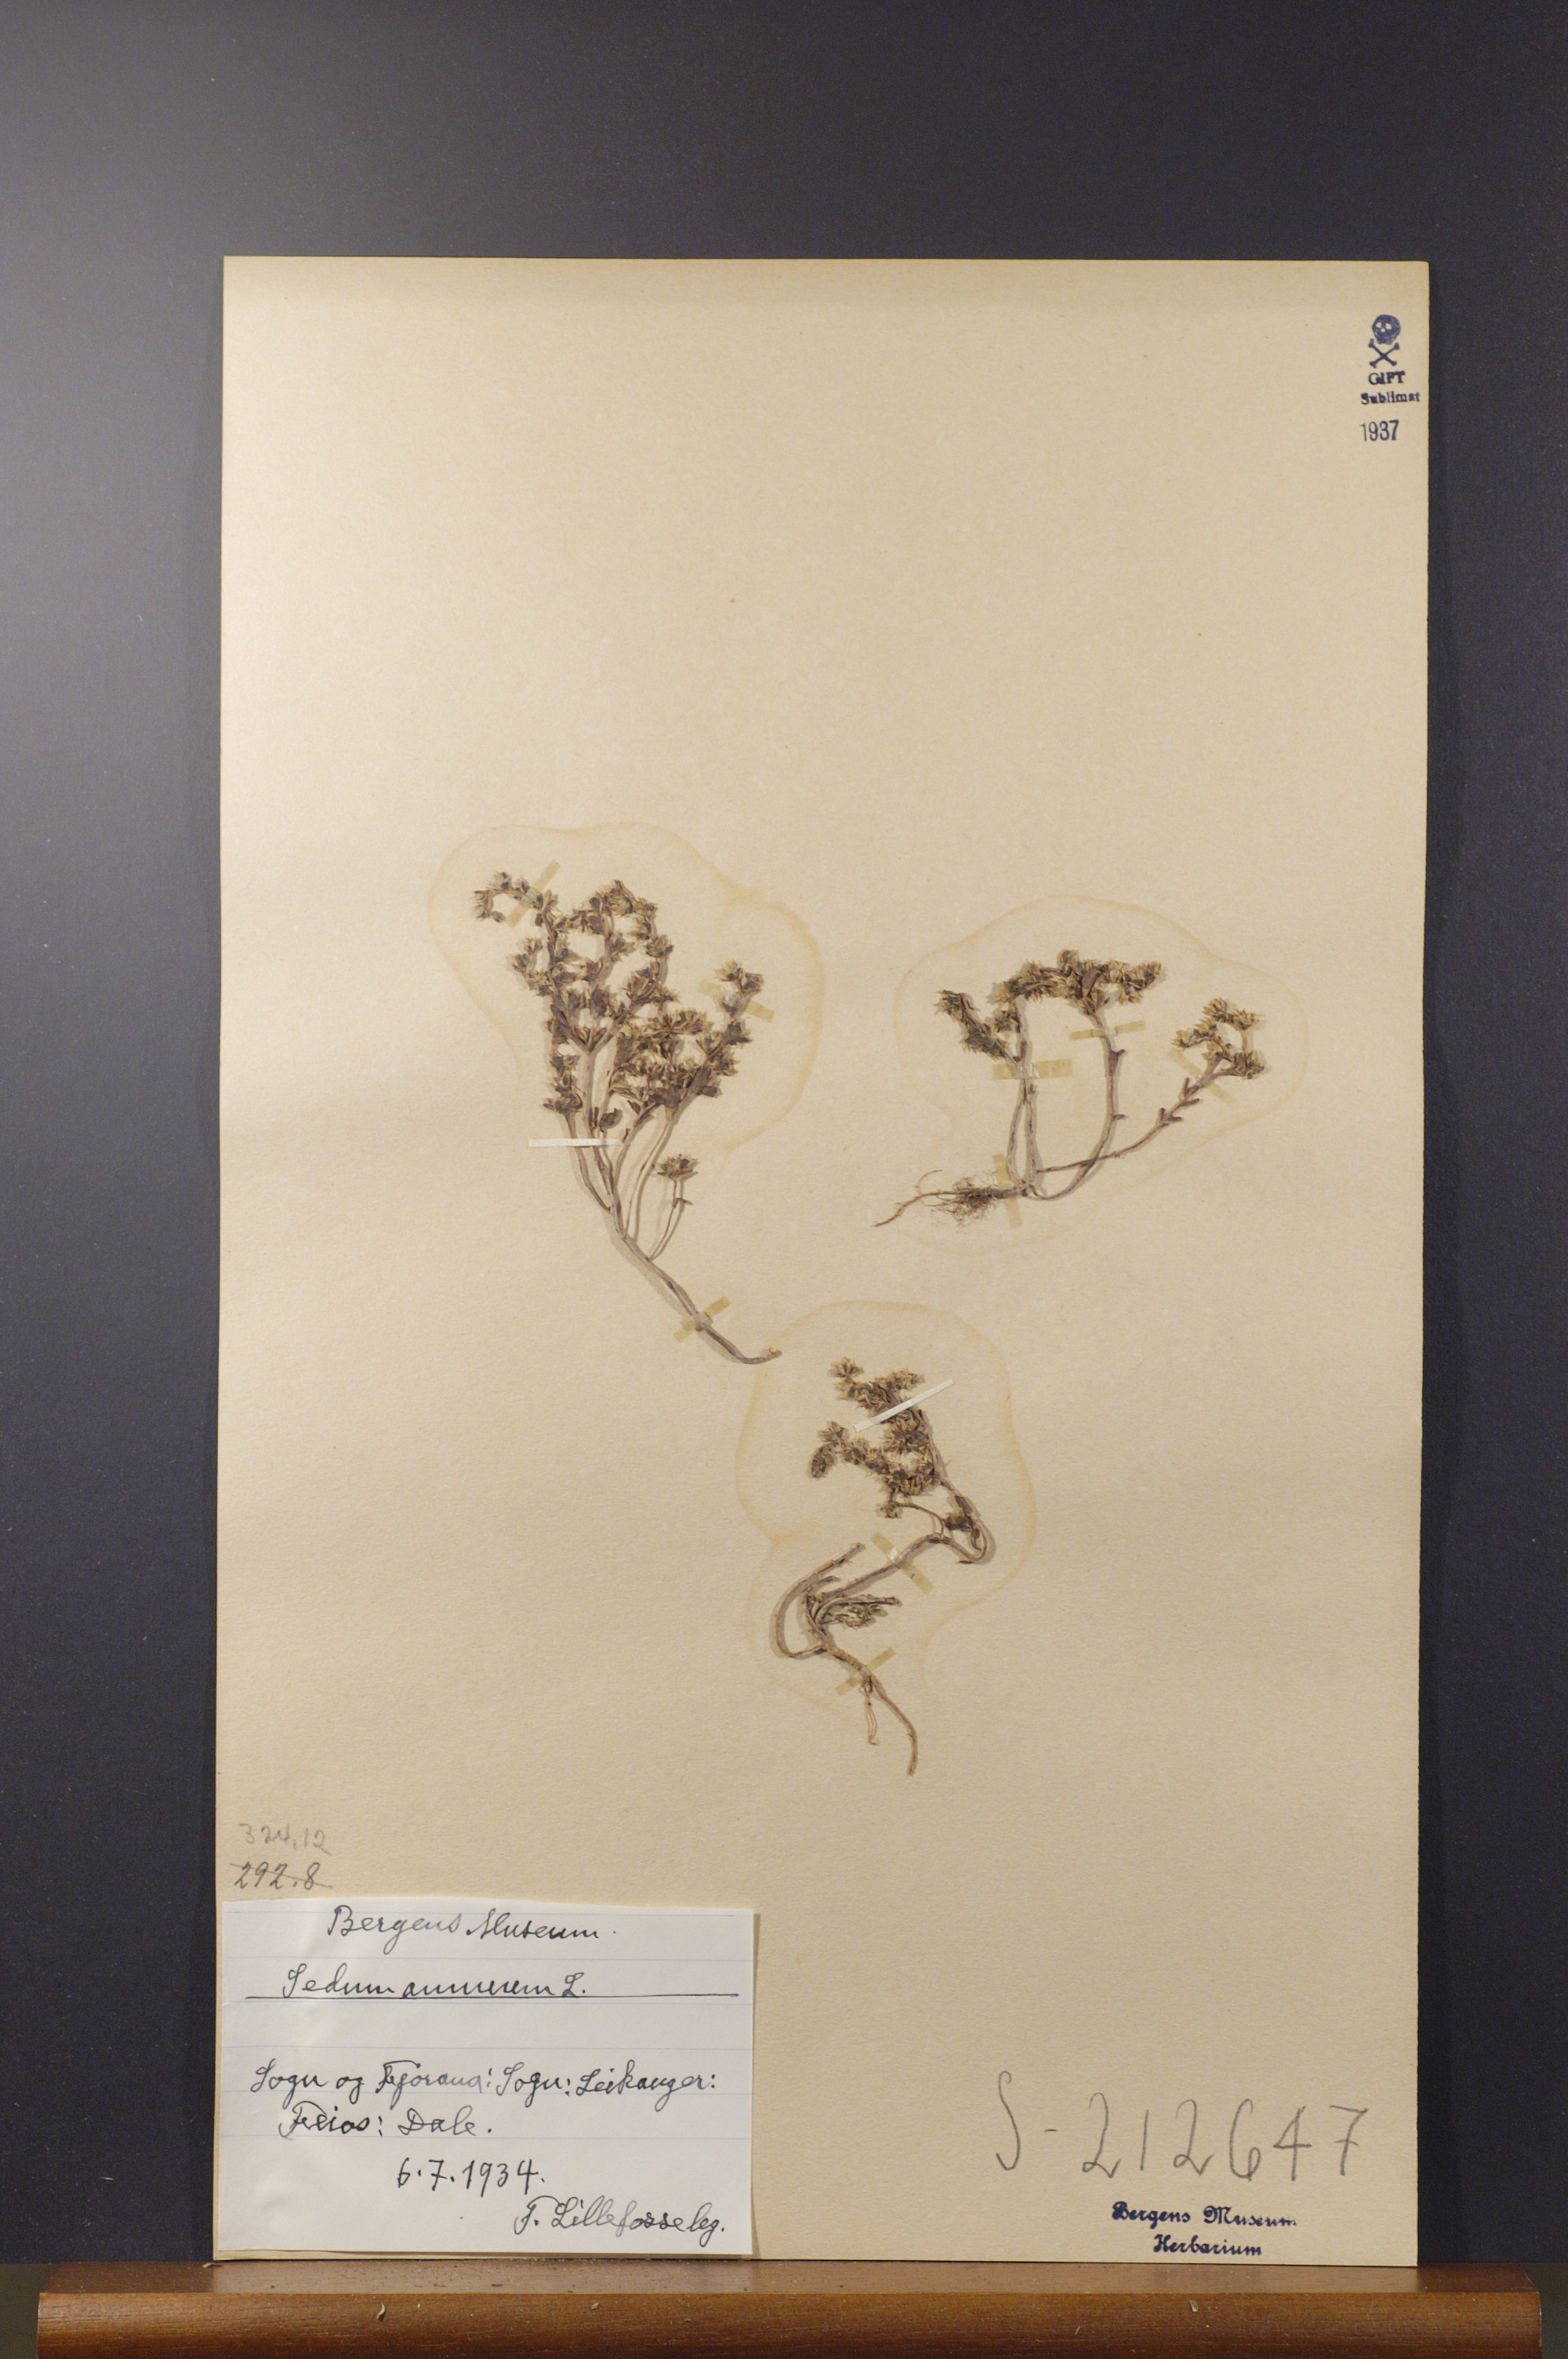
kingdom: Plantae
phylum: Tracheophyta
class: Magnoliopsida
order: Saxifragales
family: Crassulaceae
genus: Sedum
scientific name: Sedum annuum
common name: Annual stonecrop
